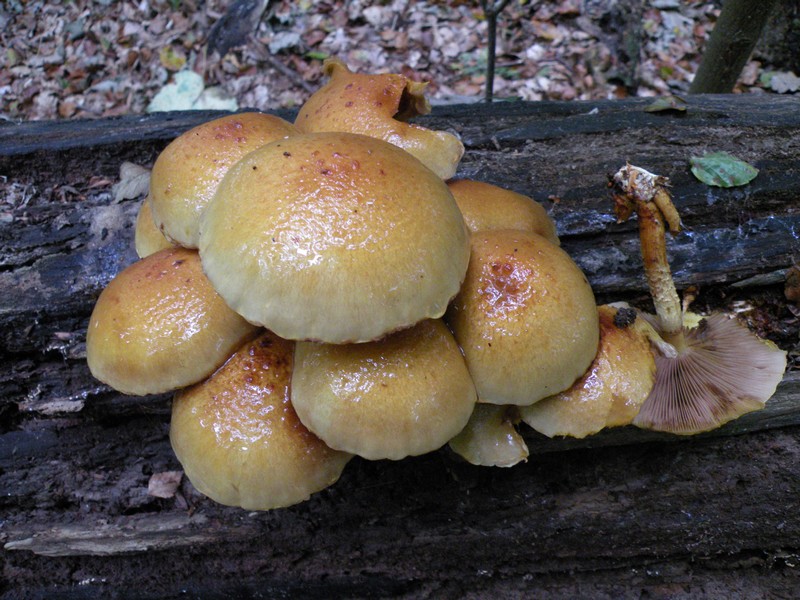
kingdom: Fungi
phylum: Basidiomycota
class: Agaricomycetes
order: Agaricales
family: Strophariaceae
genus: Pholiota
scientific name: Pholiota adiposa
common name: højtsiddende skælhat
